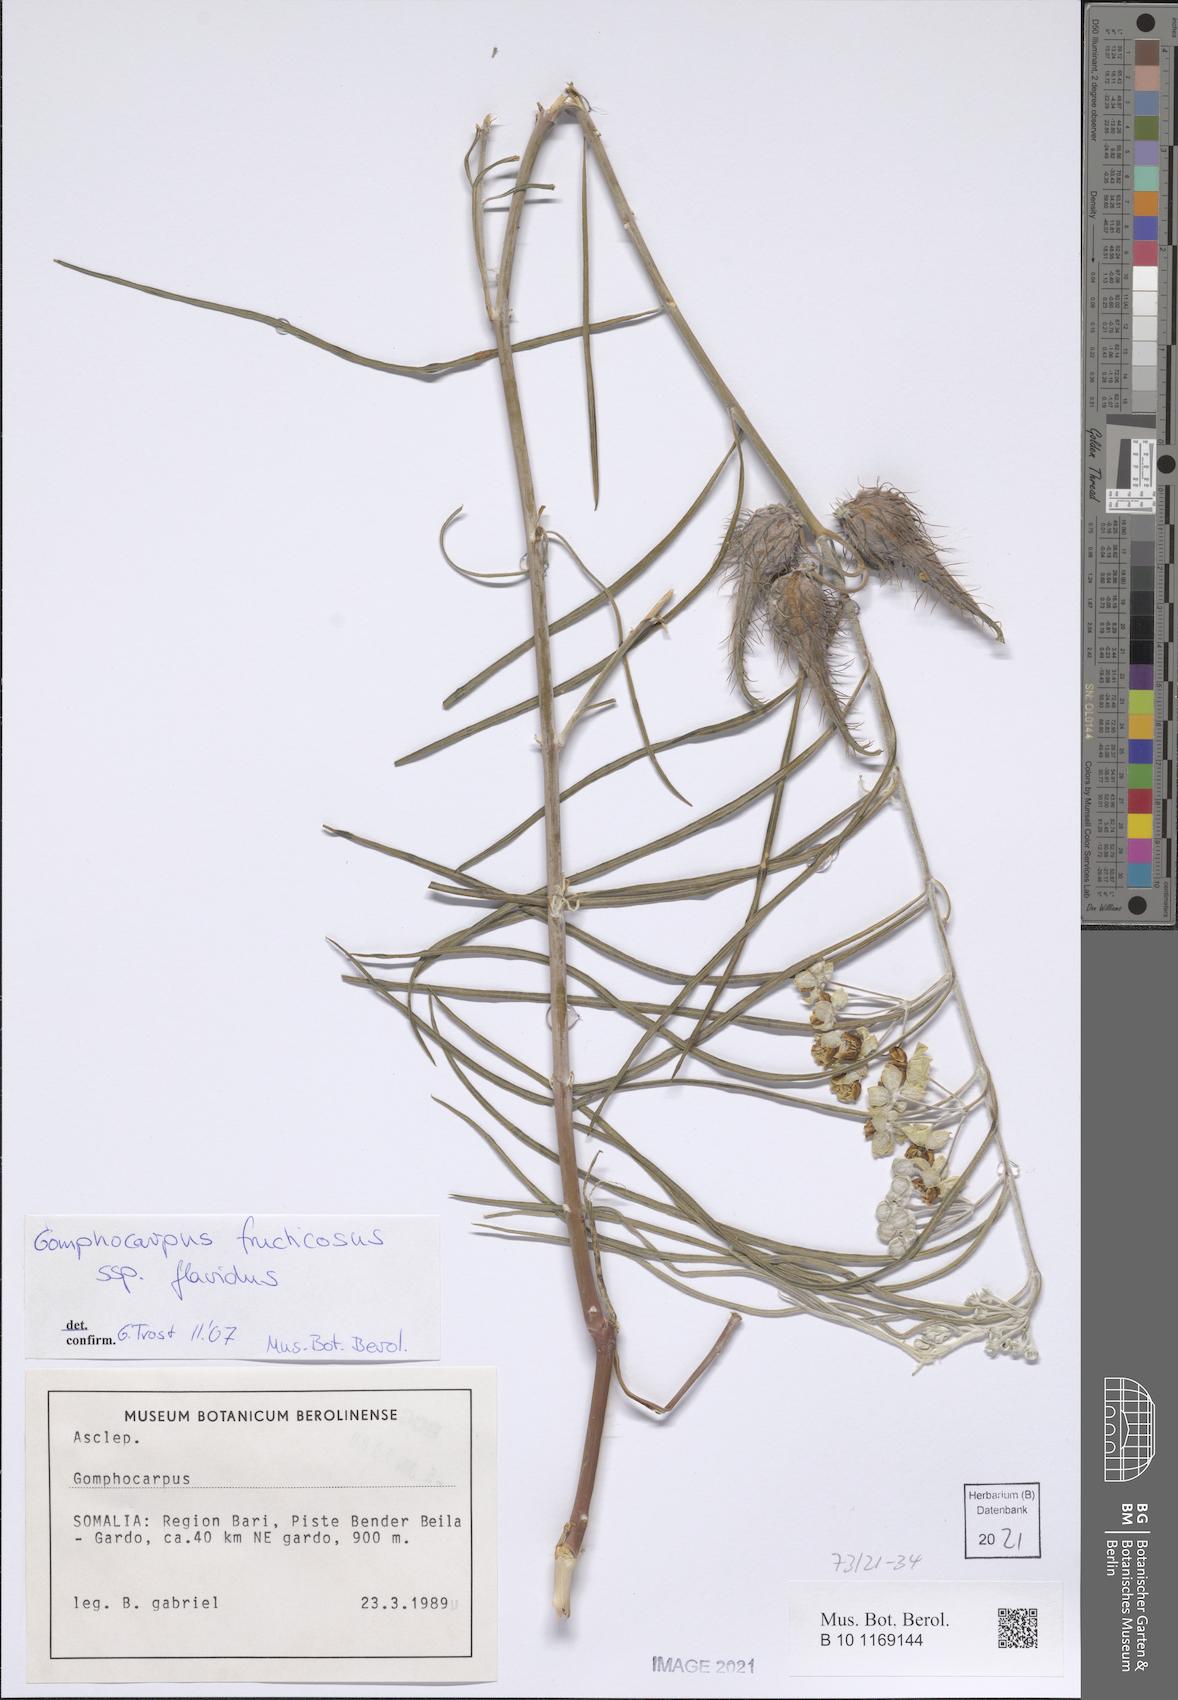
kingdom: Plantae
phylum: Tracheophyta
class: Magnoliopsida
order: Gentianales
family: Apocynaceae
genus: Gomphocarpus
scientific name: Gomphocarpus fruticosus
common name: Milkweed
